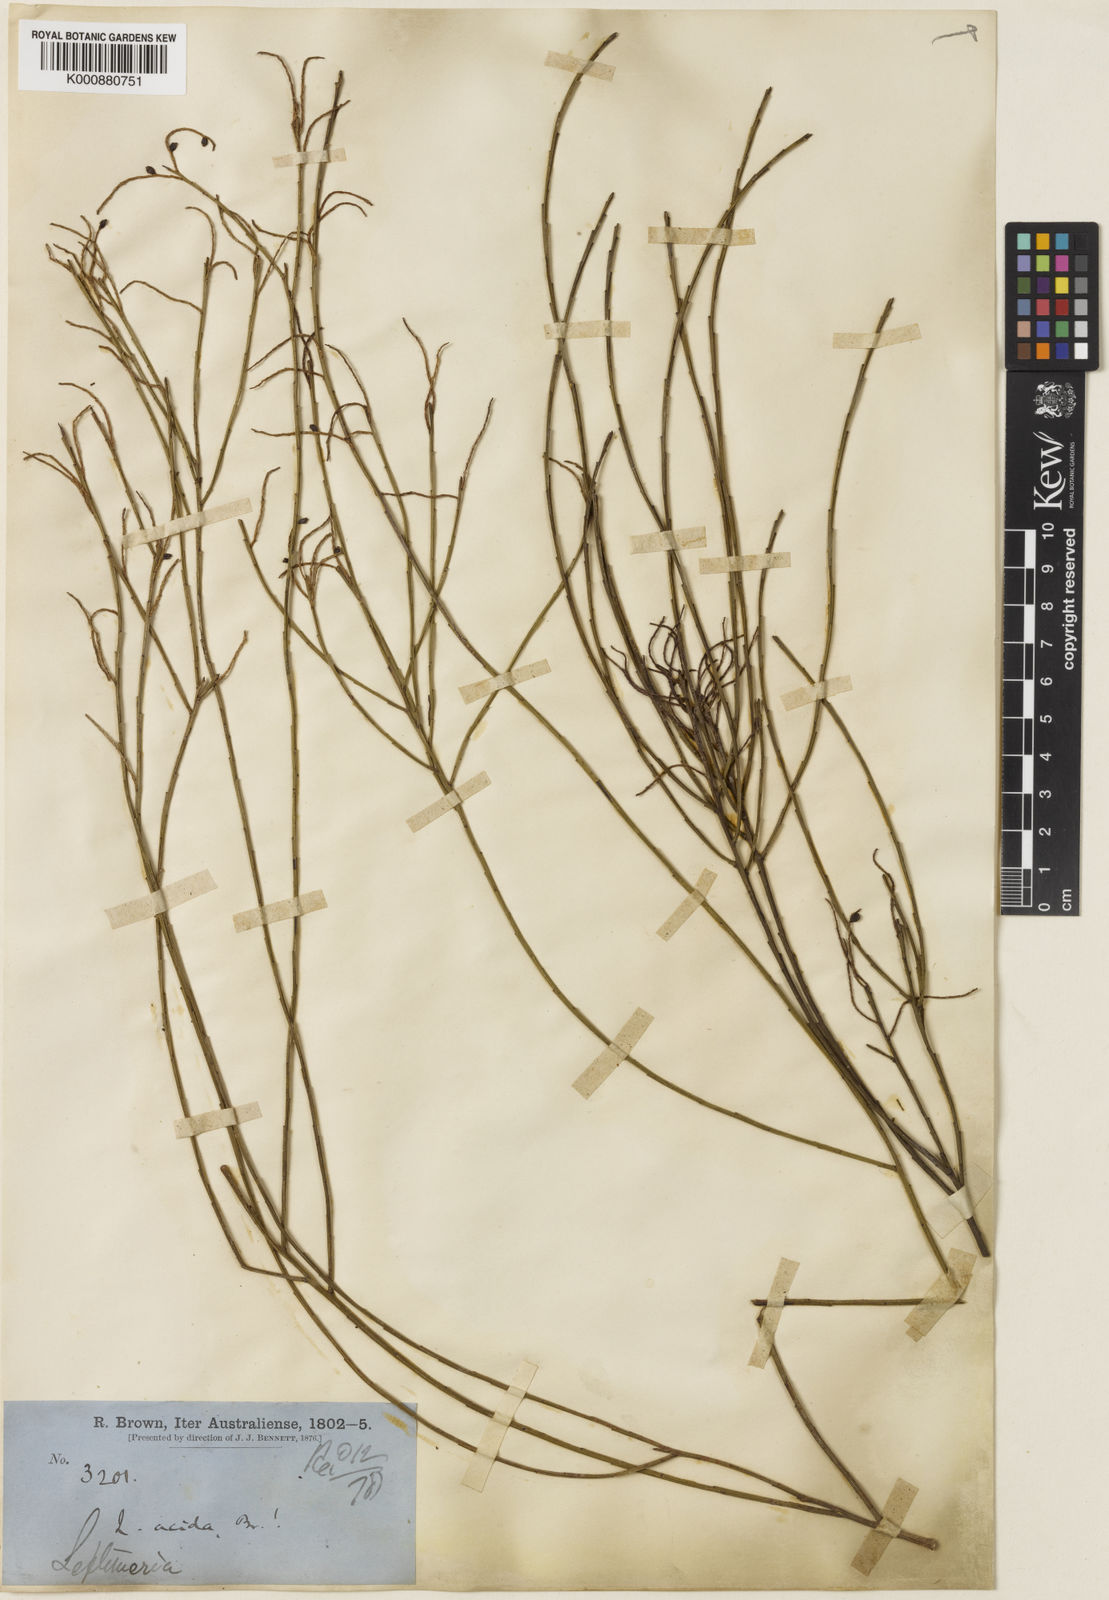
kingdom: Plantae
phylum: Tracheophyta
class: Magnoliopsida
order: Santalales
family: Amphorogynaceae
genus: Leptomeria
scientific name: Leptomeria acida
